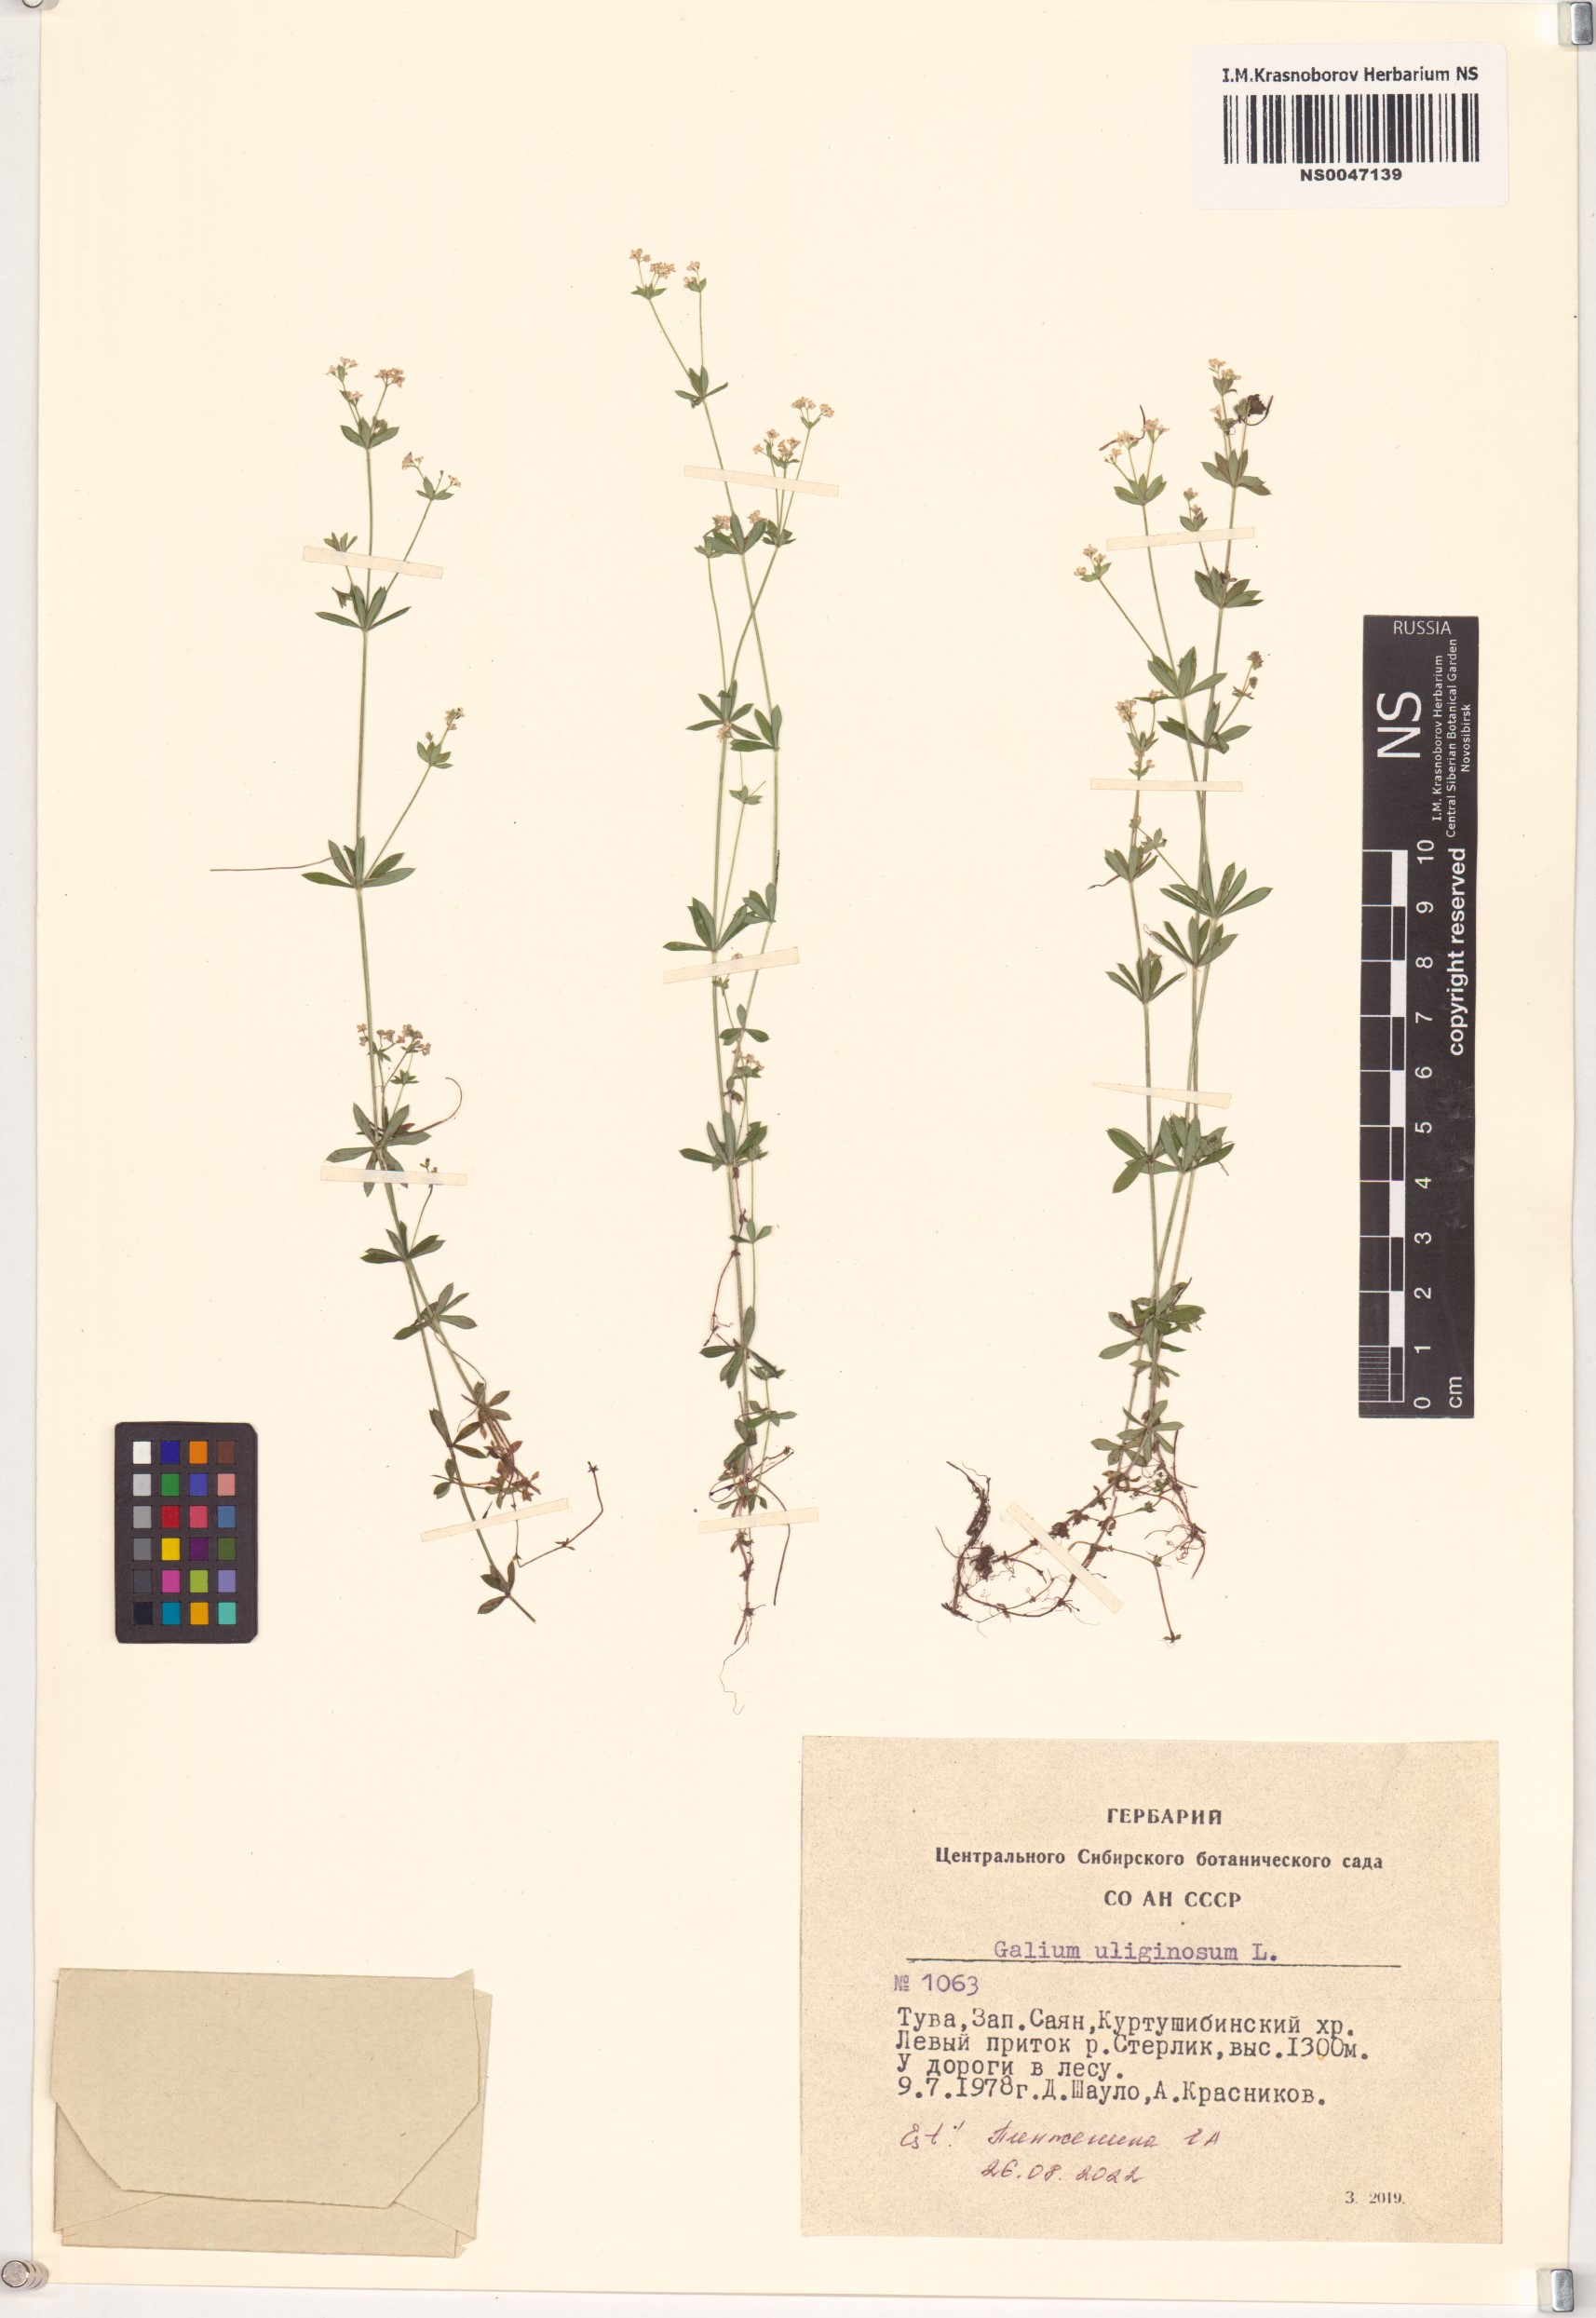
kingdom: Plantae
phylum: Tracheophyta
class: Magnoliopsida
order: Gentianales
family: Rubiaceae
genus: Galium
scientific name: Galium uliginosum
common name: Fen bedstraw
